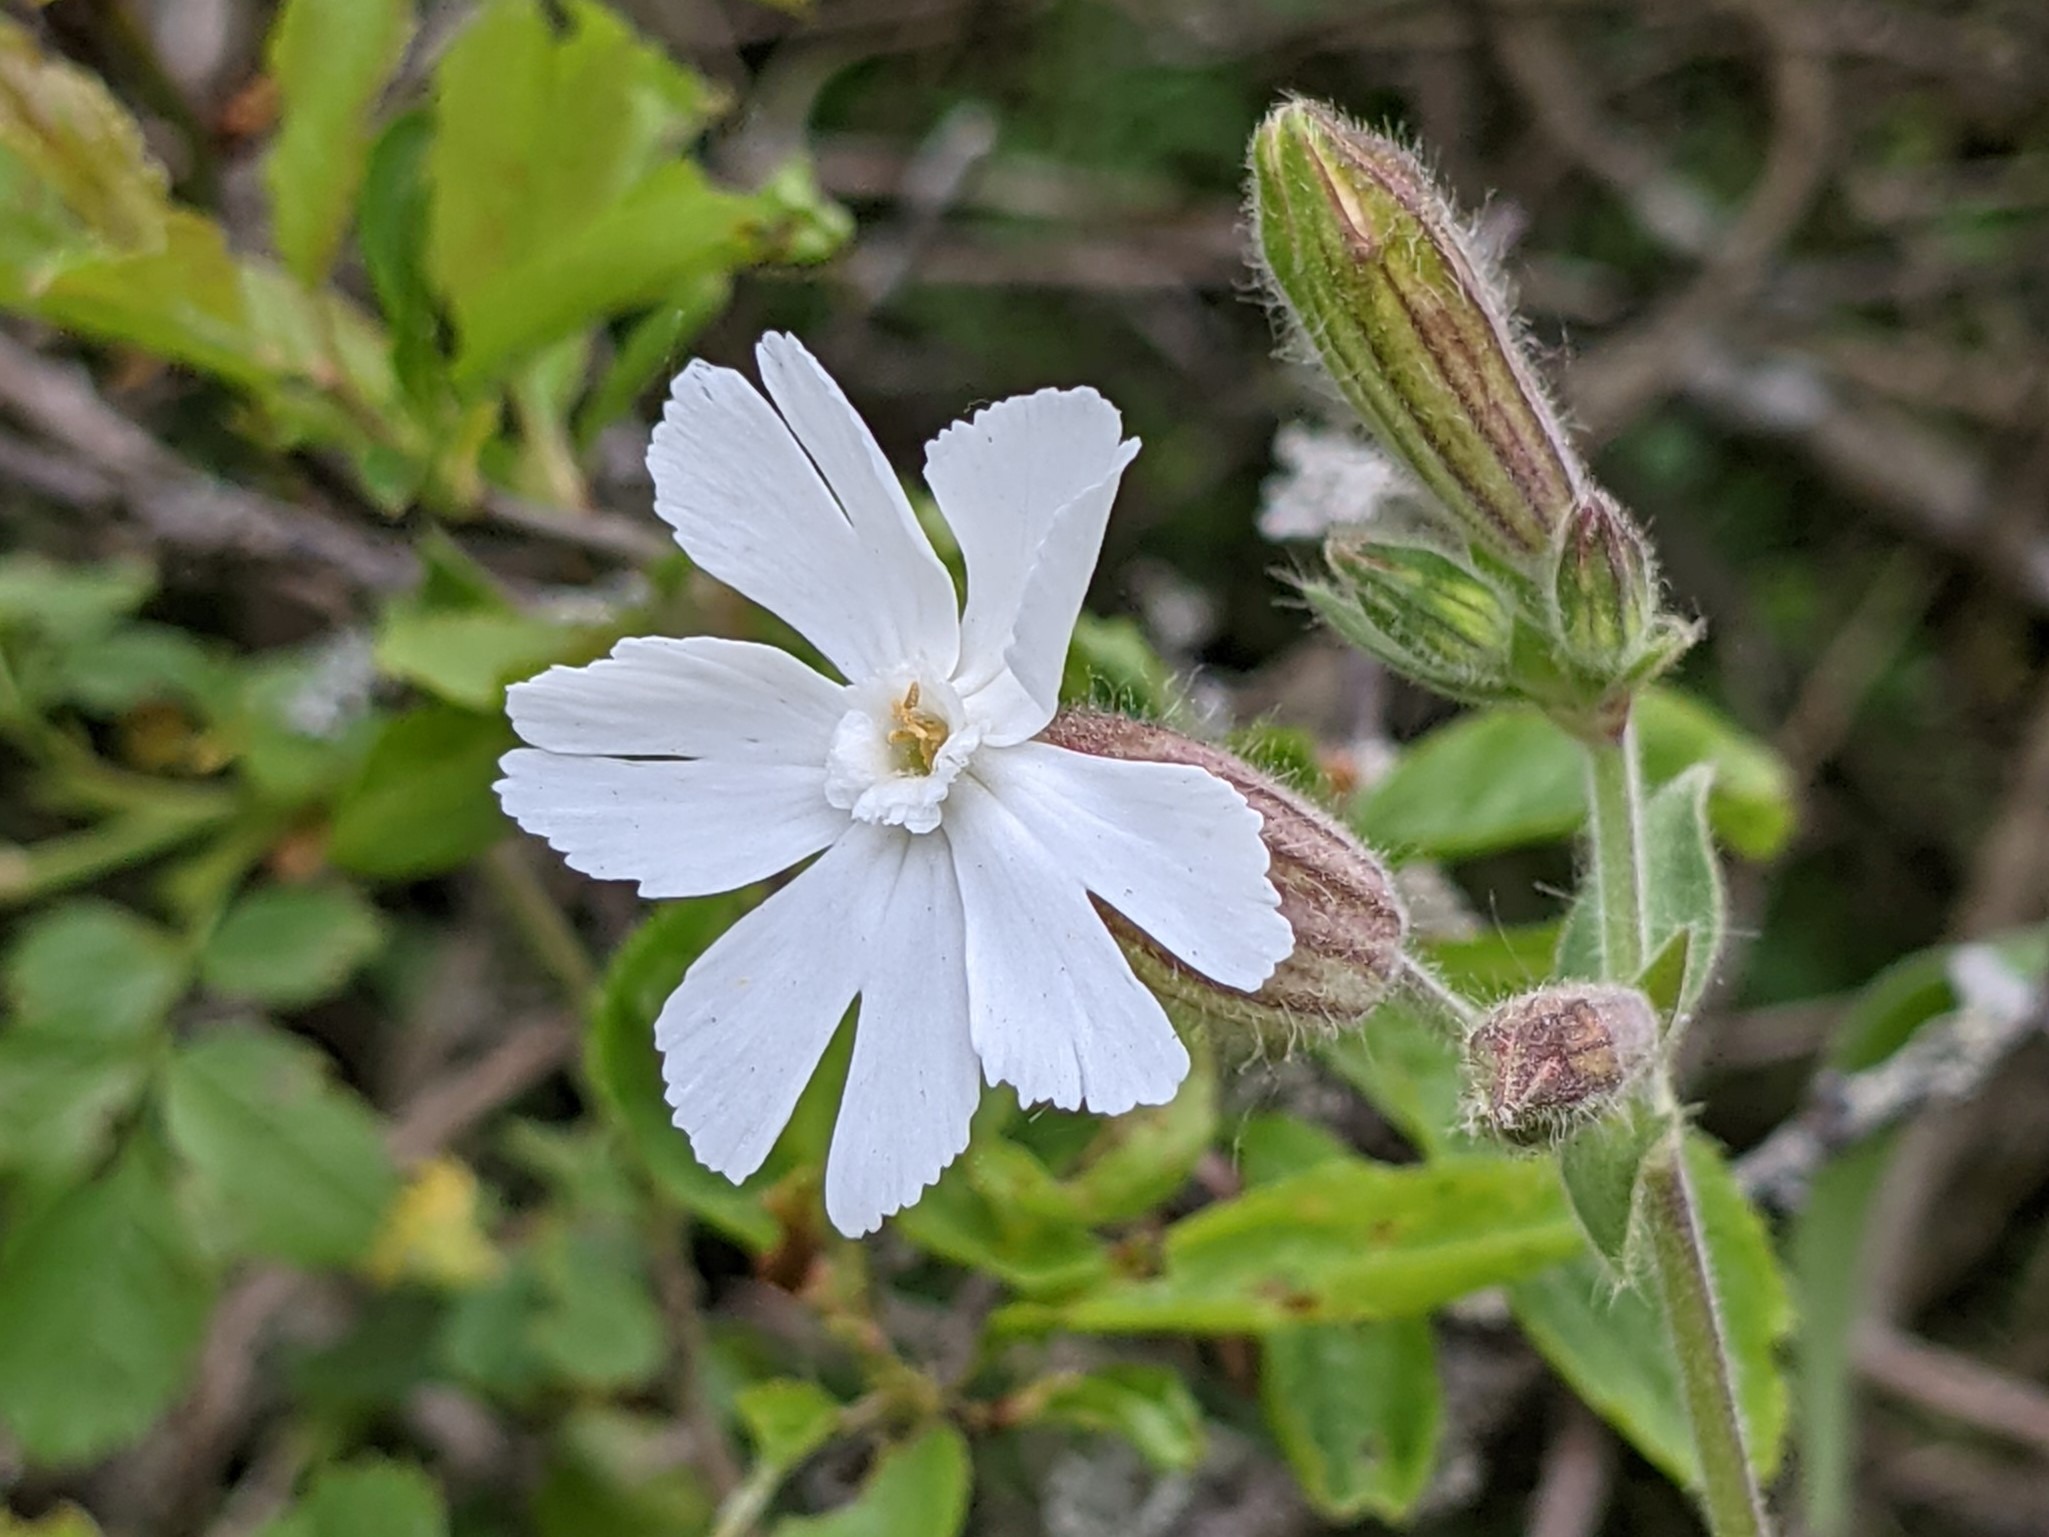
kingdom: Plantae
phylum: Tracheophyta
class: Magnoliopsida
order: Caryophyllales
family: Caryophyllaceae
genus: Silene
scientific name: Silene latifolia
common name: Aftenpragtstjerne
